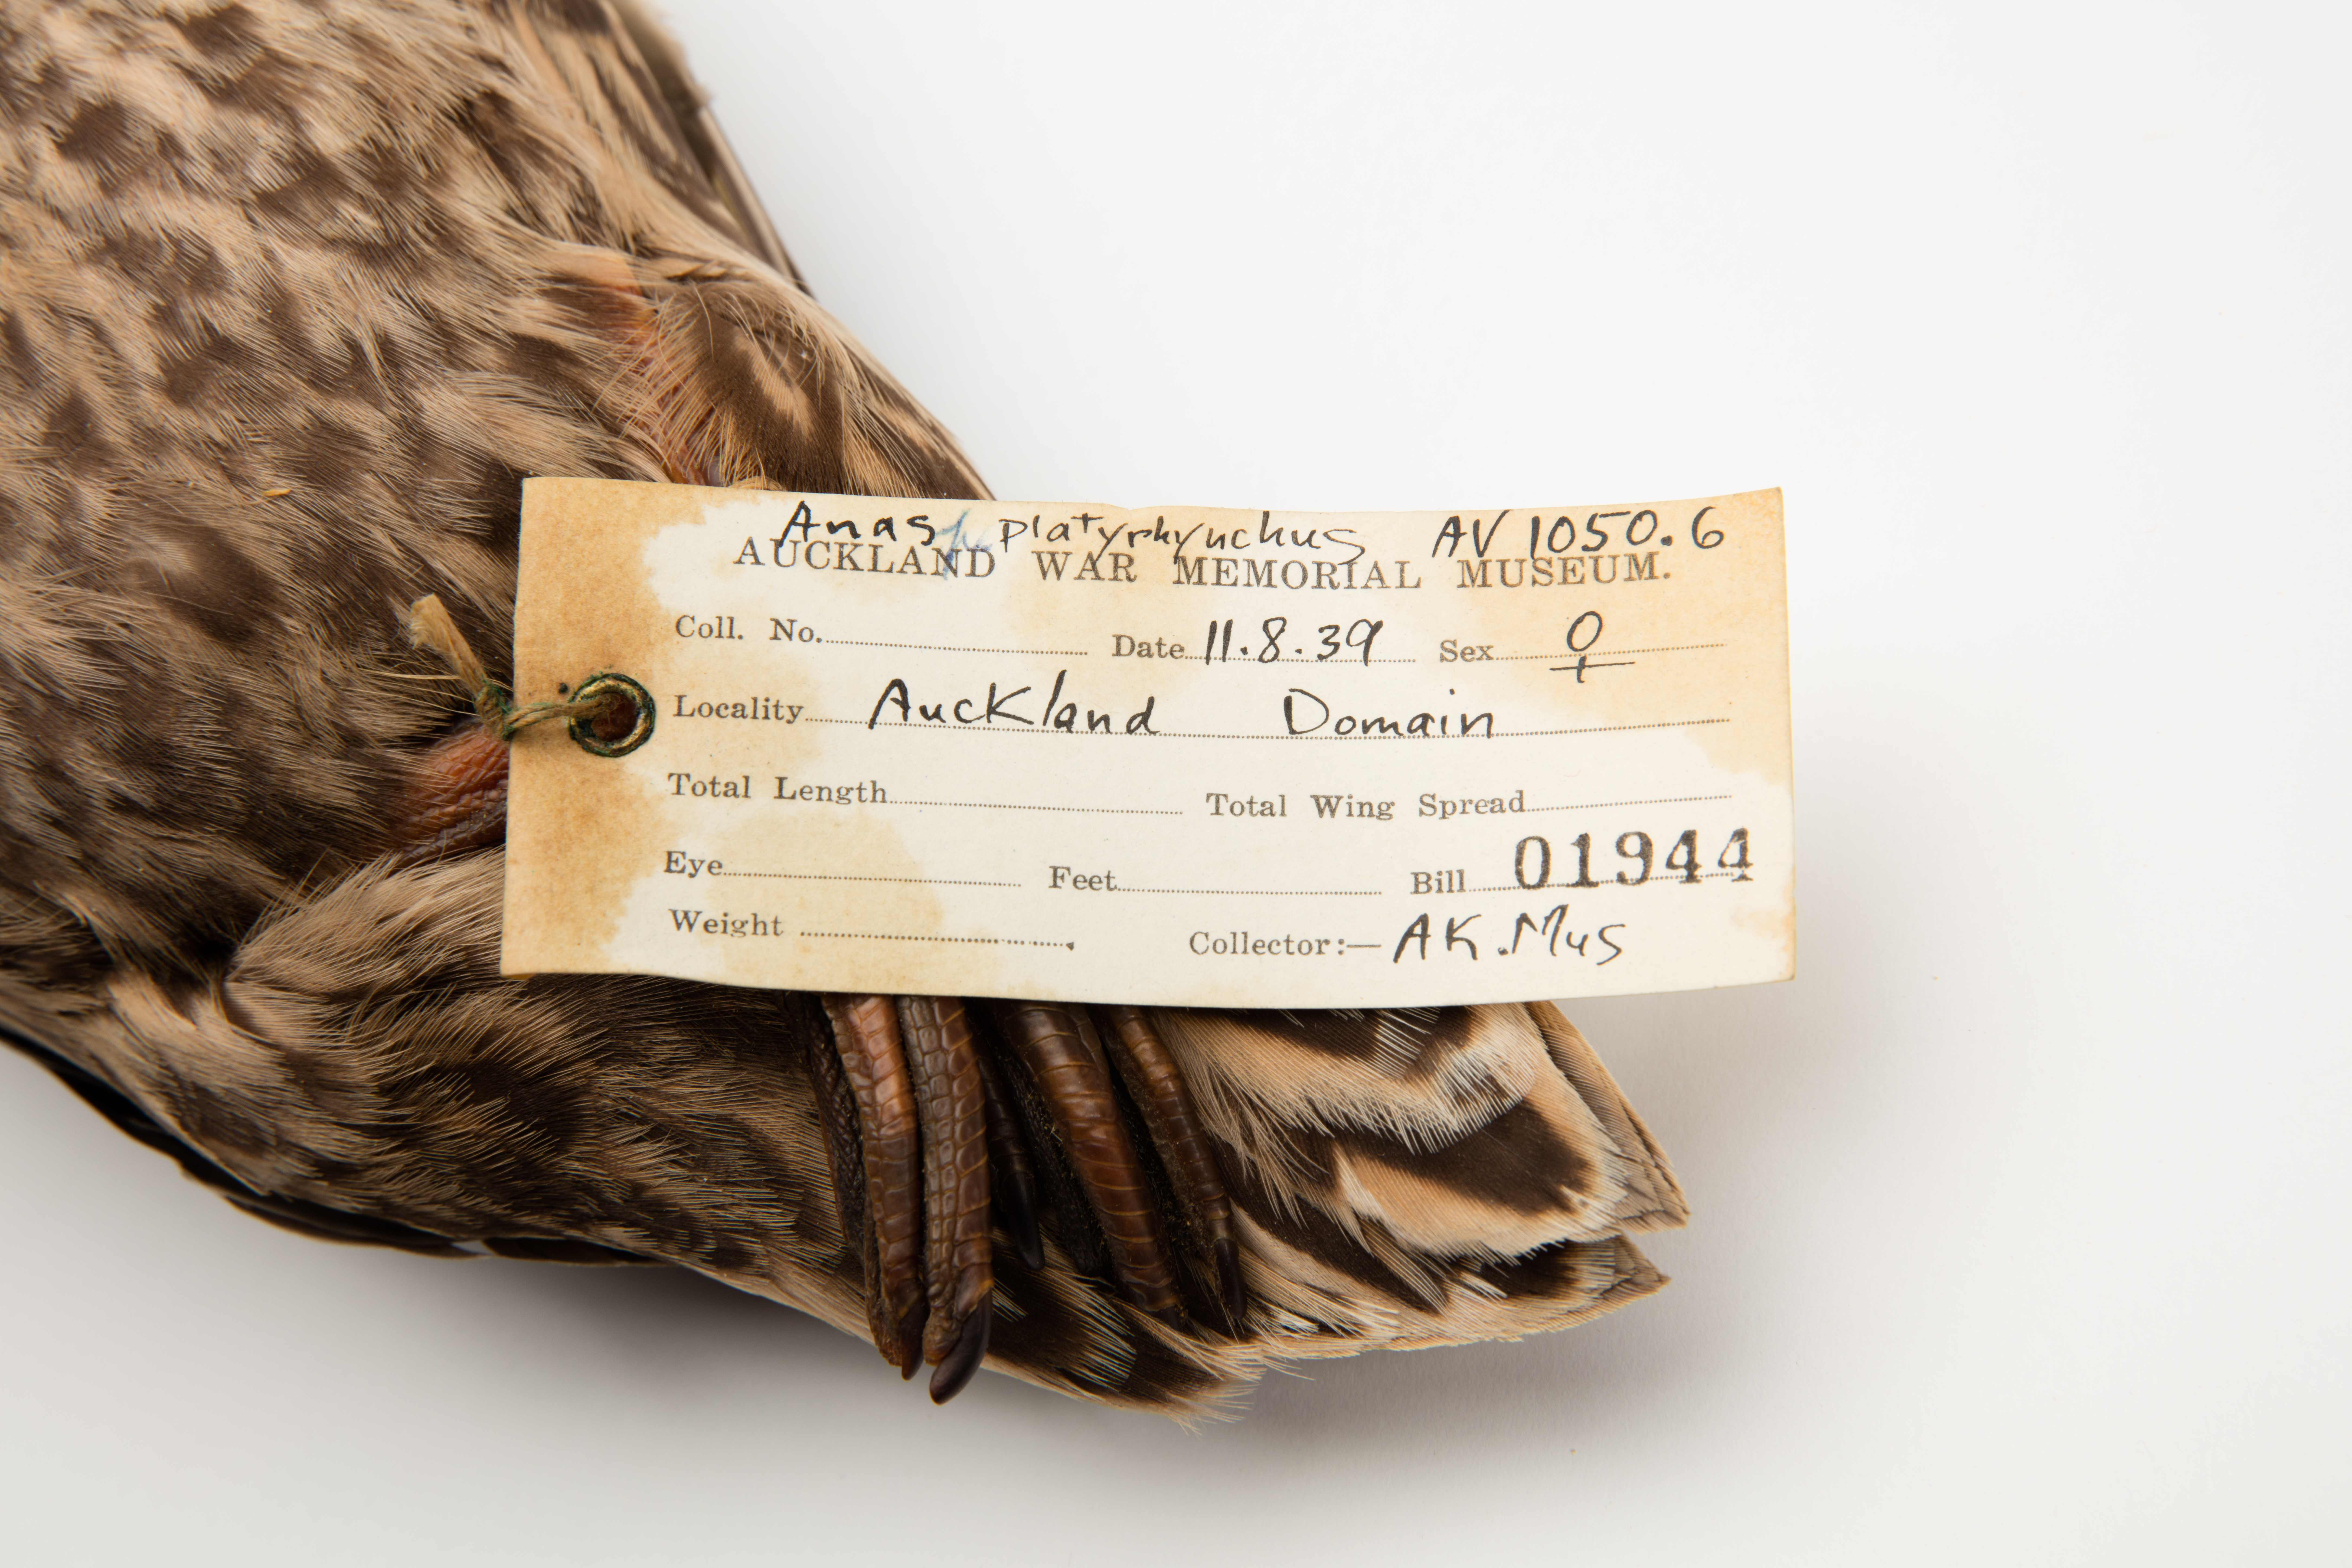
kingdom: Animalia
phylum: Chordata
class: Aves
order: Anseriformes
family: Anatidae
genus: Anas
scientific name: Anas platyrhynchos
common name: Mallard
